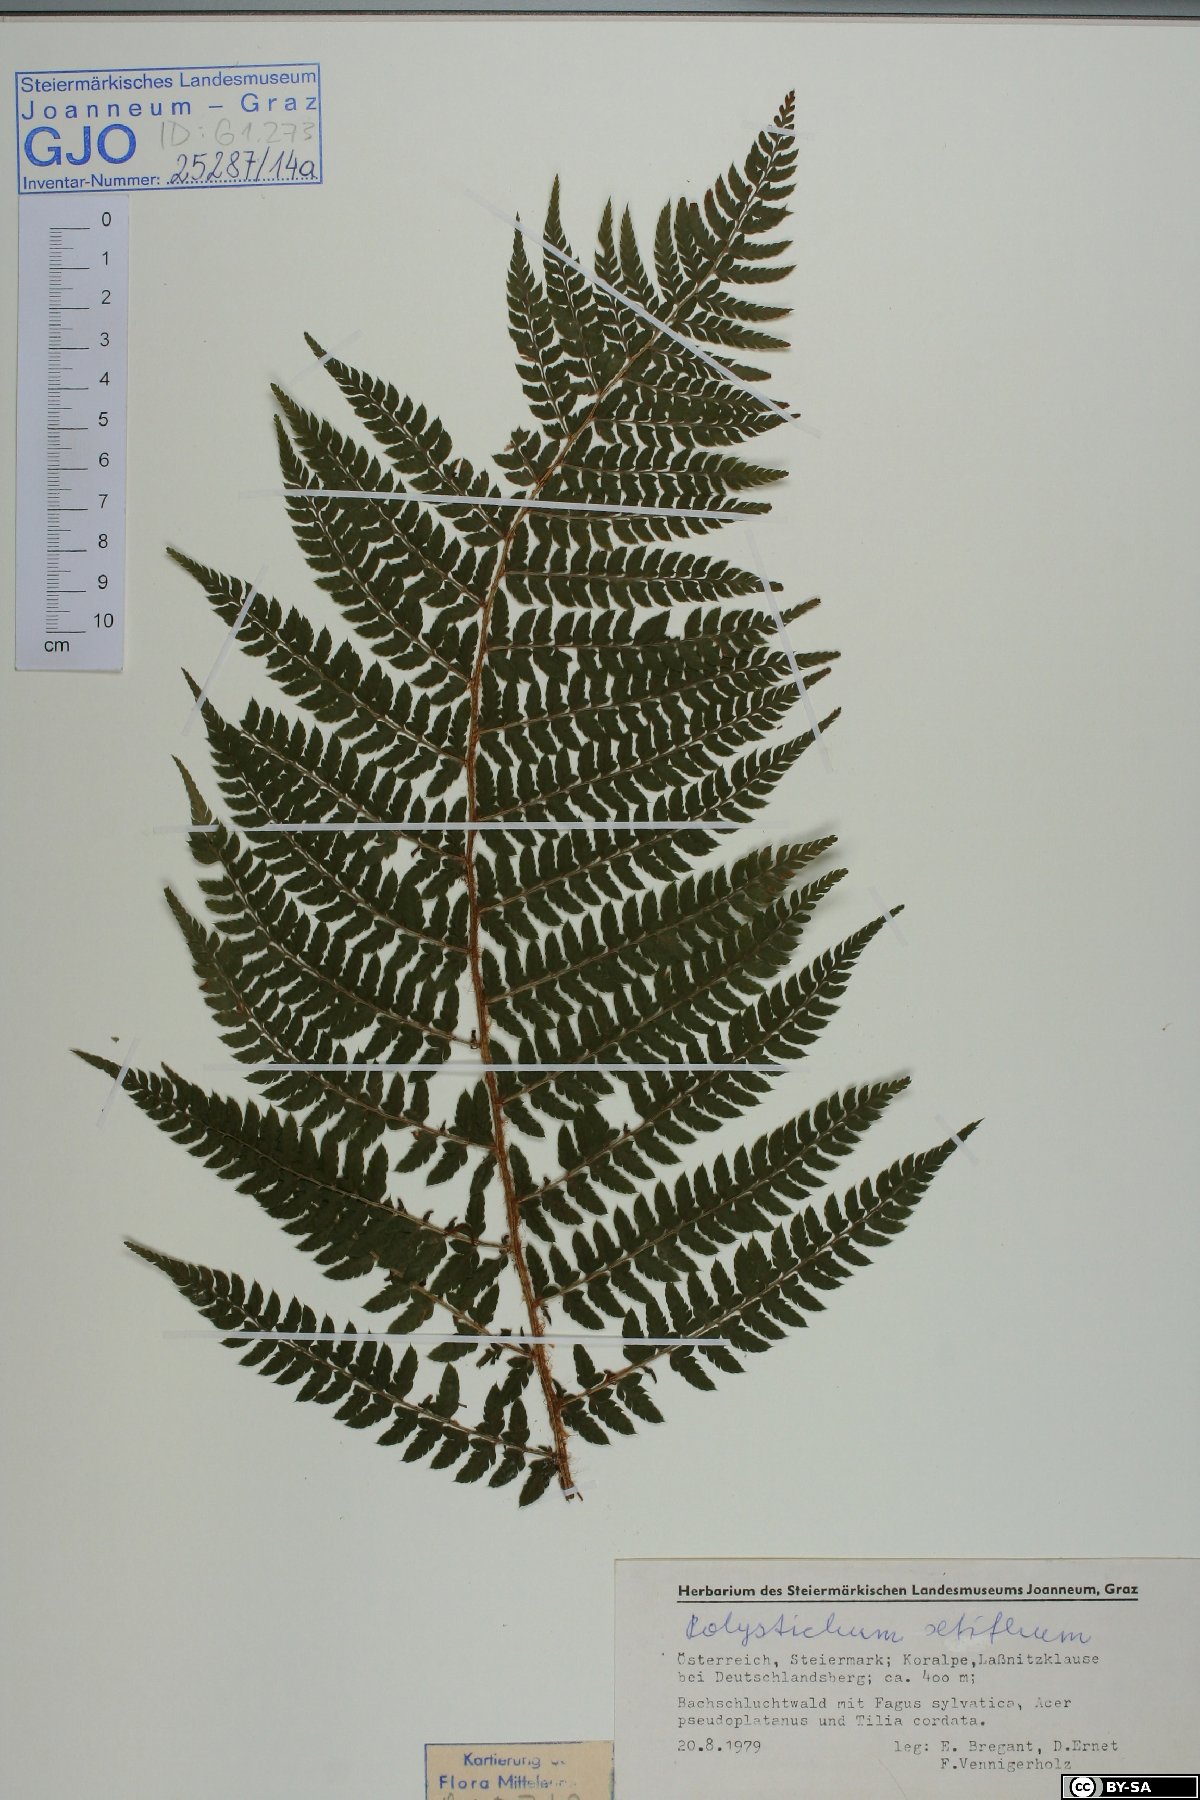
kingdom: Plantae
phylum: Tracheophyta
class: Polypodiopsida
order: Polypodiales
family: Dryopteridaceae
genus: Polystichum
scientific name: Polystichum setiferum
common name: Soft shield-fern
